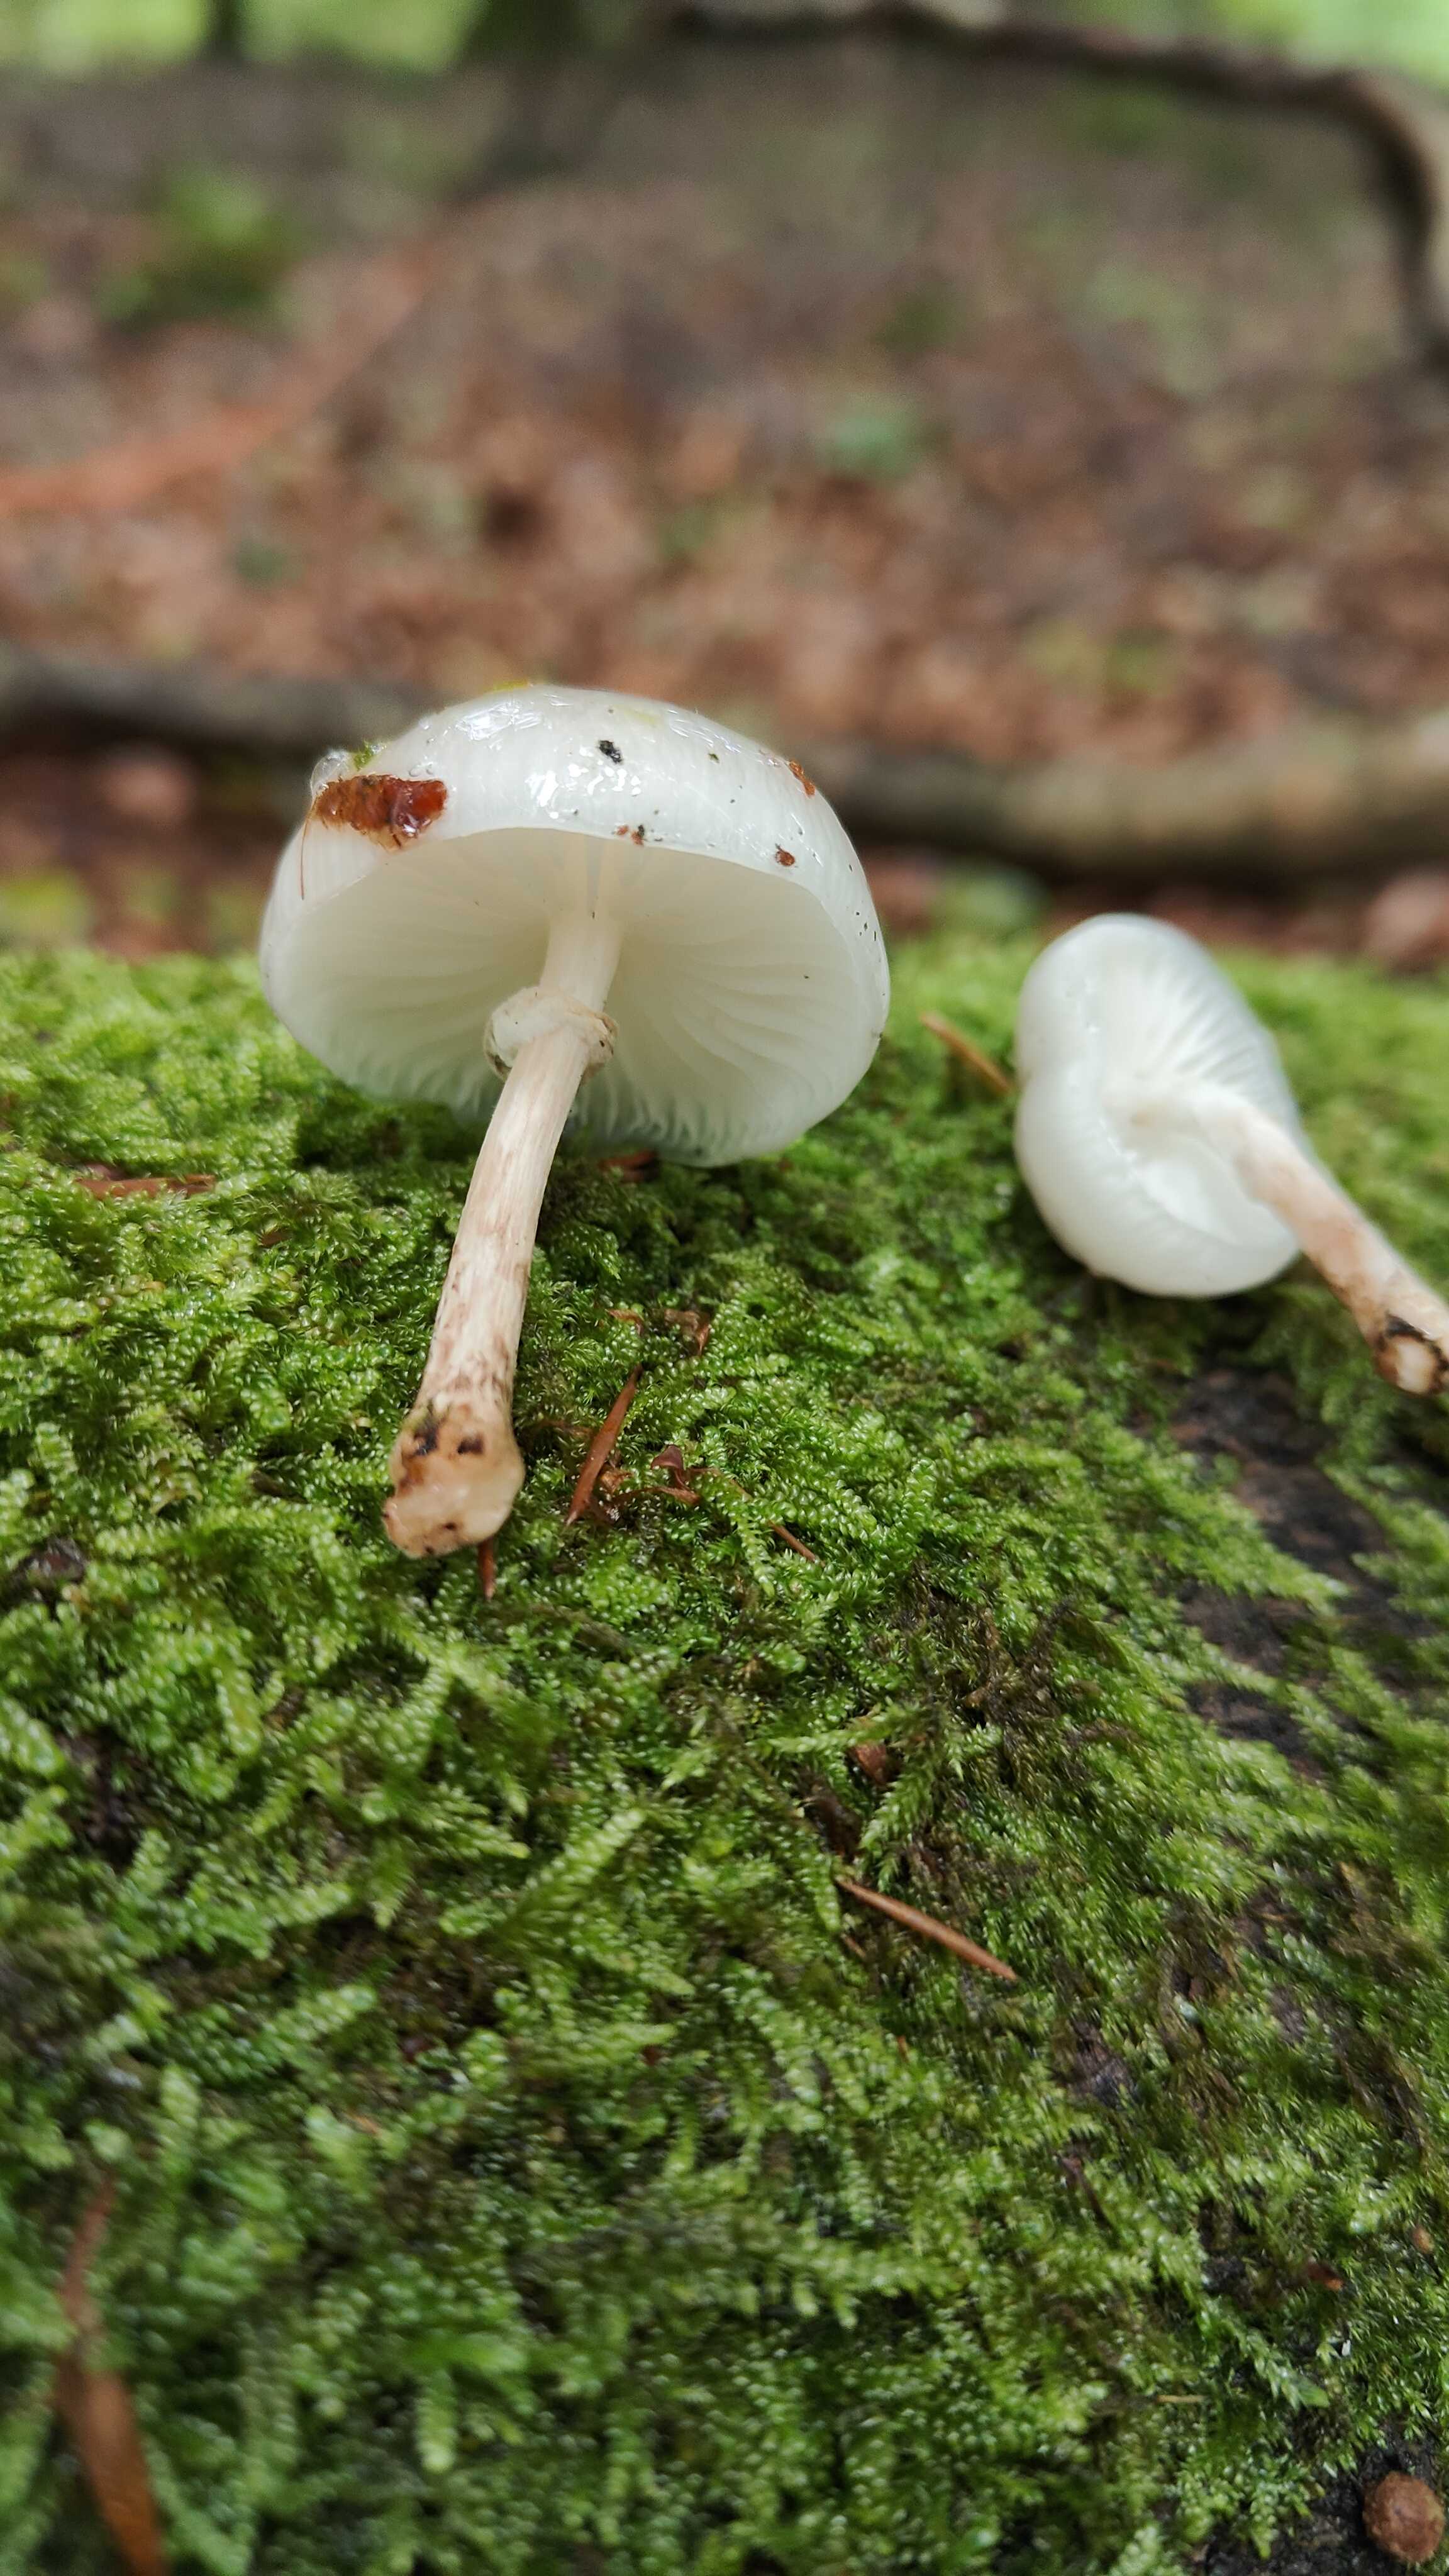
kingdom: Fungi
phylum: Basidiomycota
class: Agaricomycetes
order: Agaricales
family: Physalacriaceae
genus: Mucidula
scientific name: Mucidula mucida
